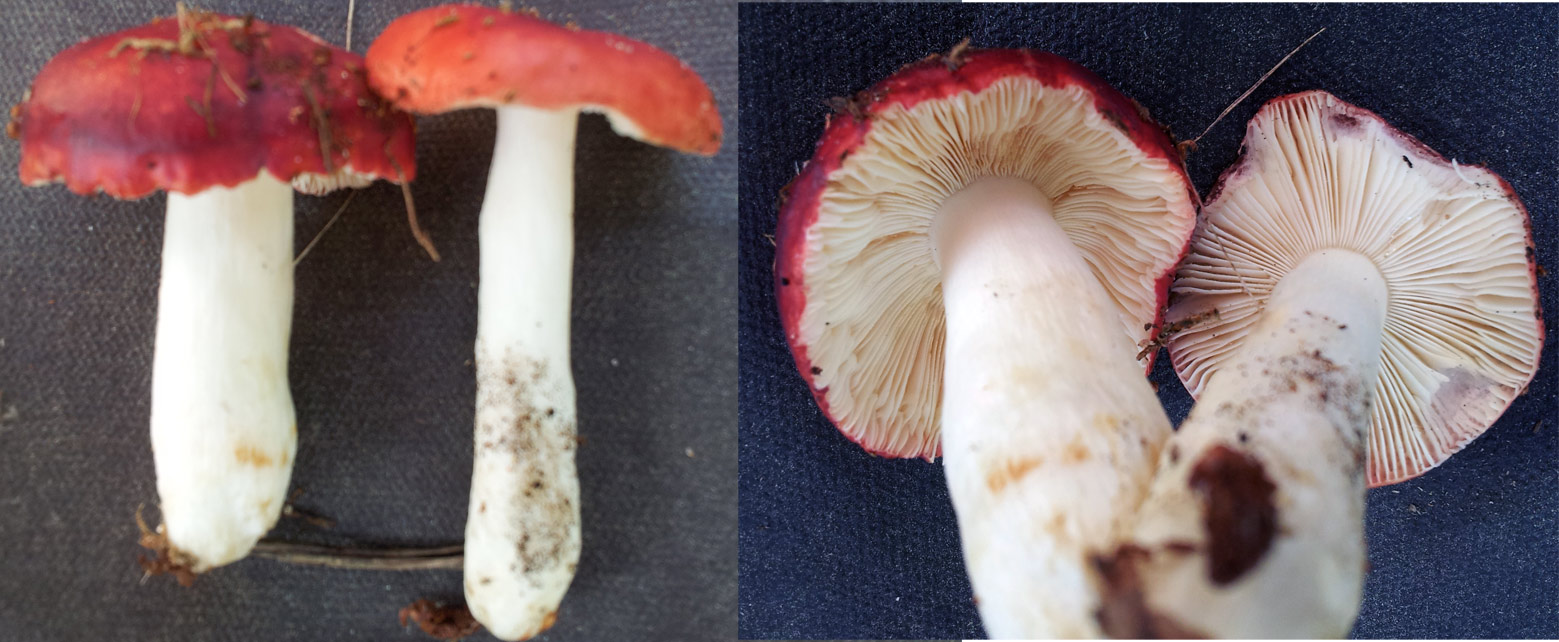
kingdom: Fungi
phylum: Basidiomycota
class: Agaricomycetes
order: Russulales
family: Russulaceae
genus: Russula
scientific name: Russula emetica
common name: stor gift-skørhat
